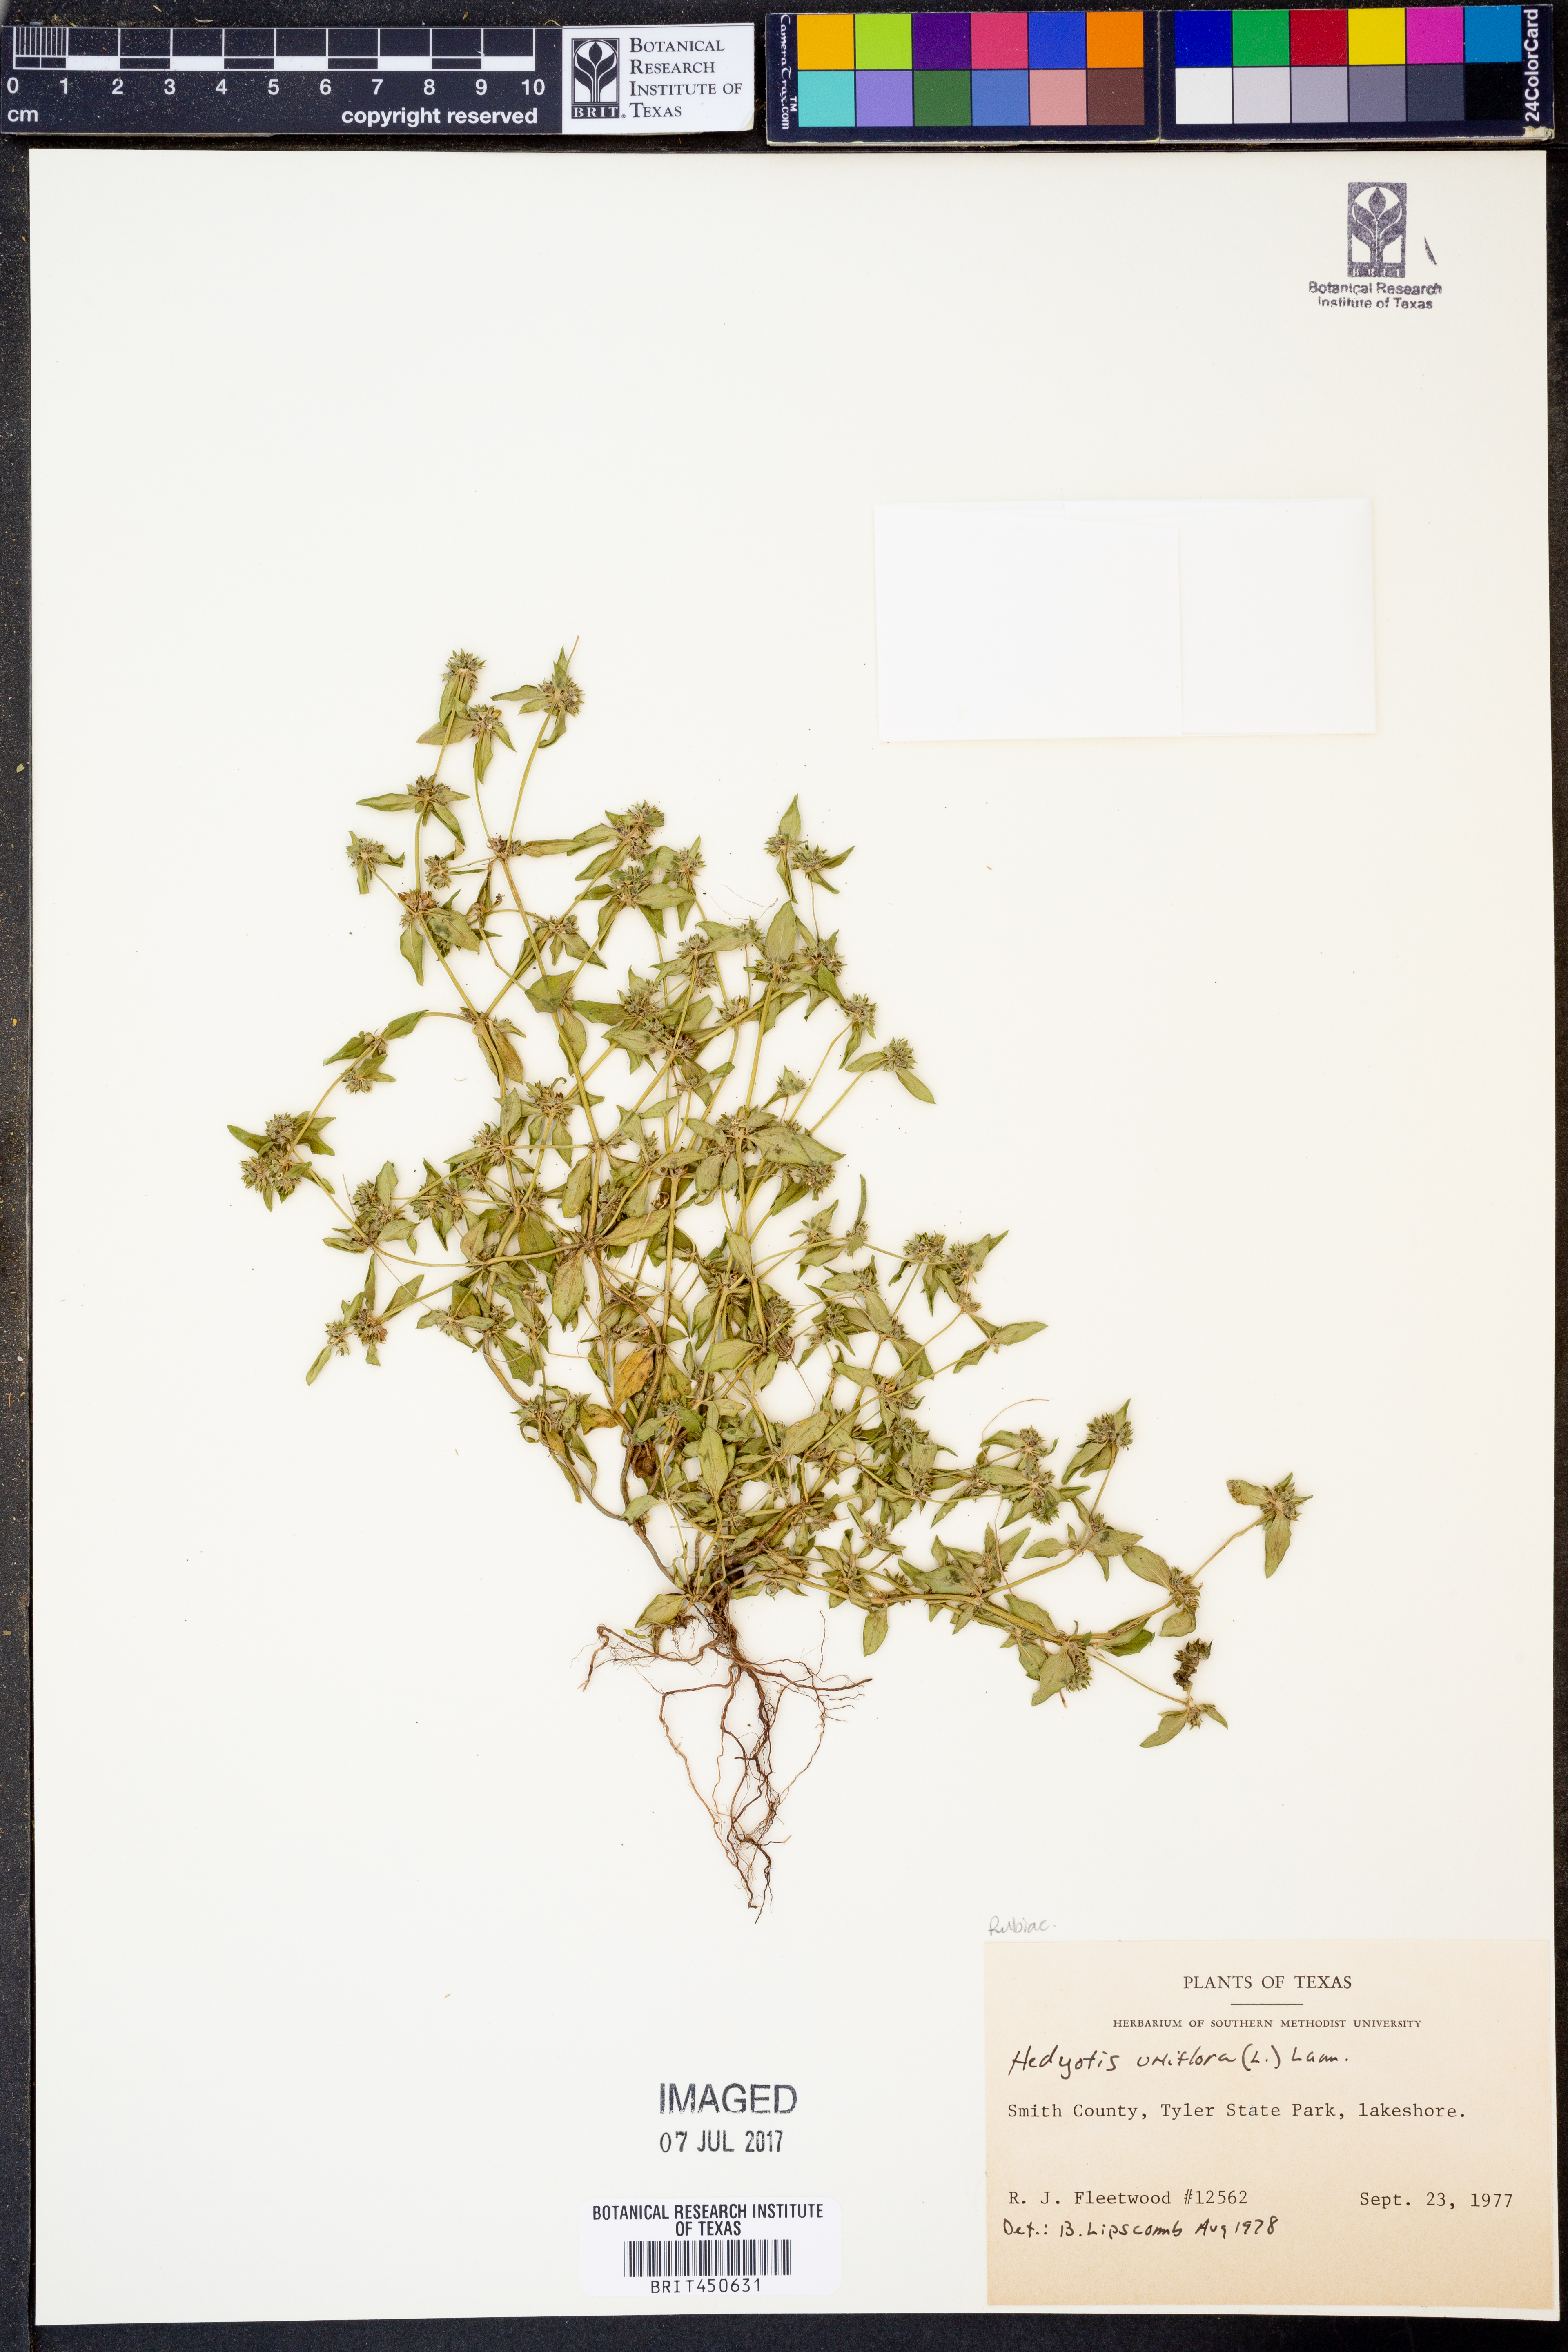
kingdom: Plantae
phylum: Tracheophyta
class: Magnoliopsida
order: Gentianales
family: Rubiaceae
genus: Edrastima
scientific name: Edrastima uniflora
